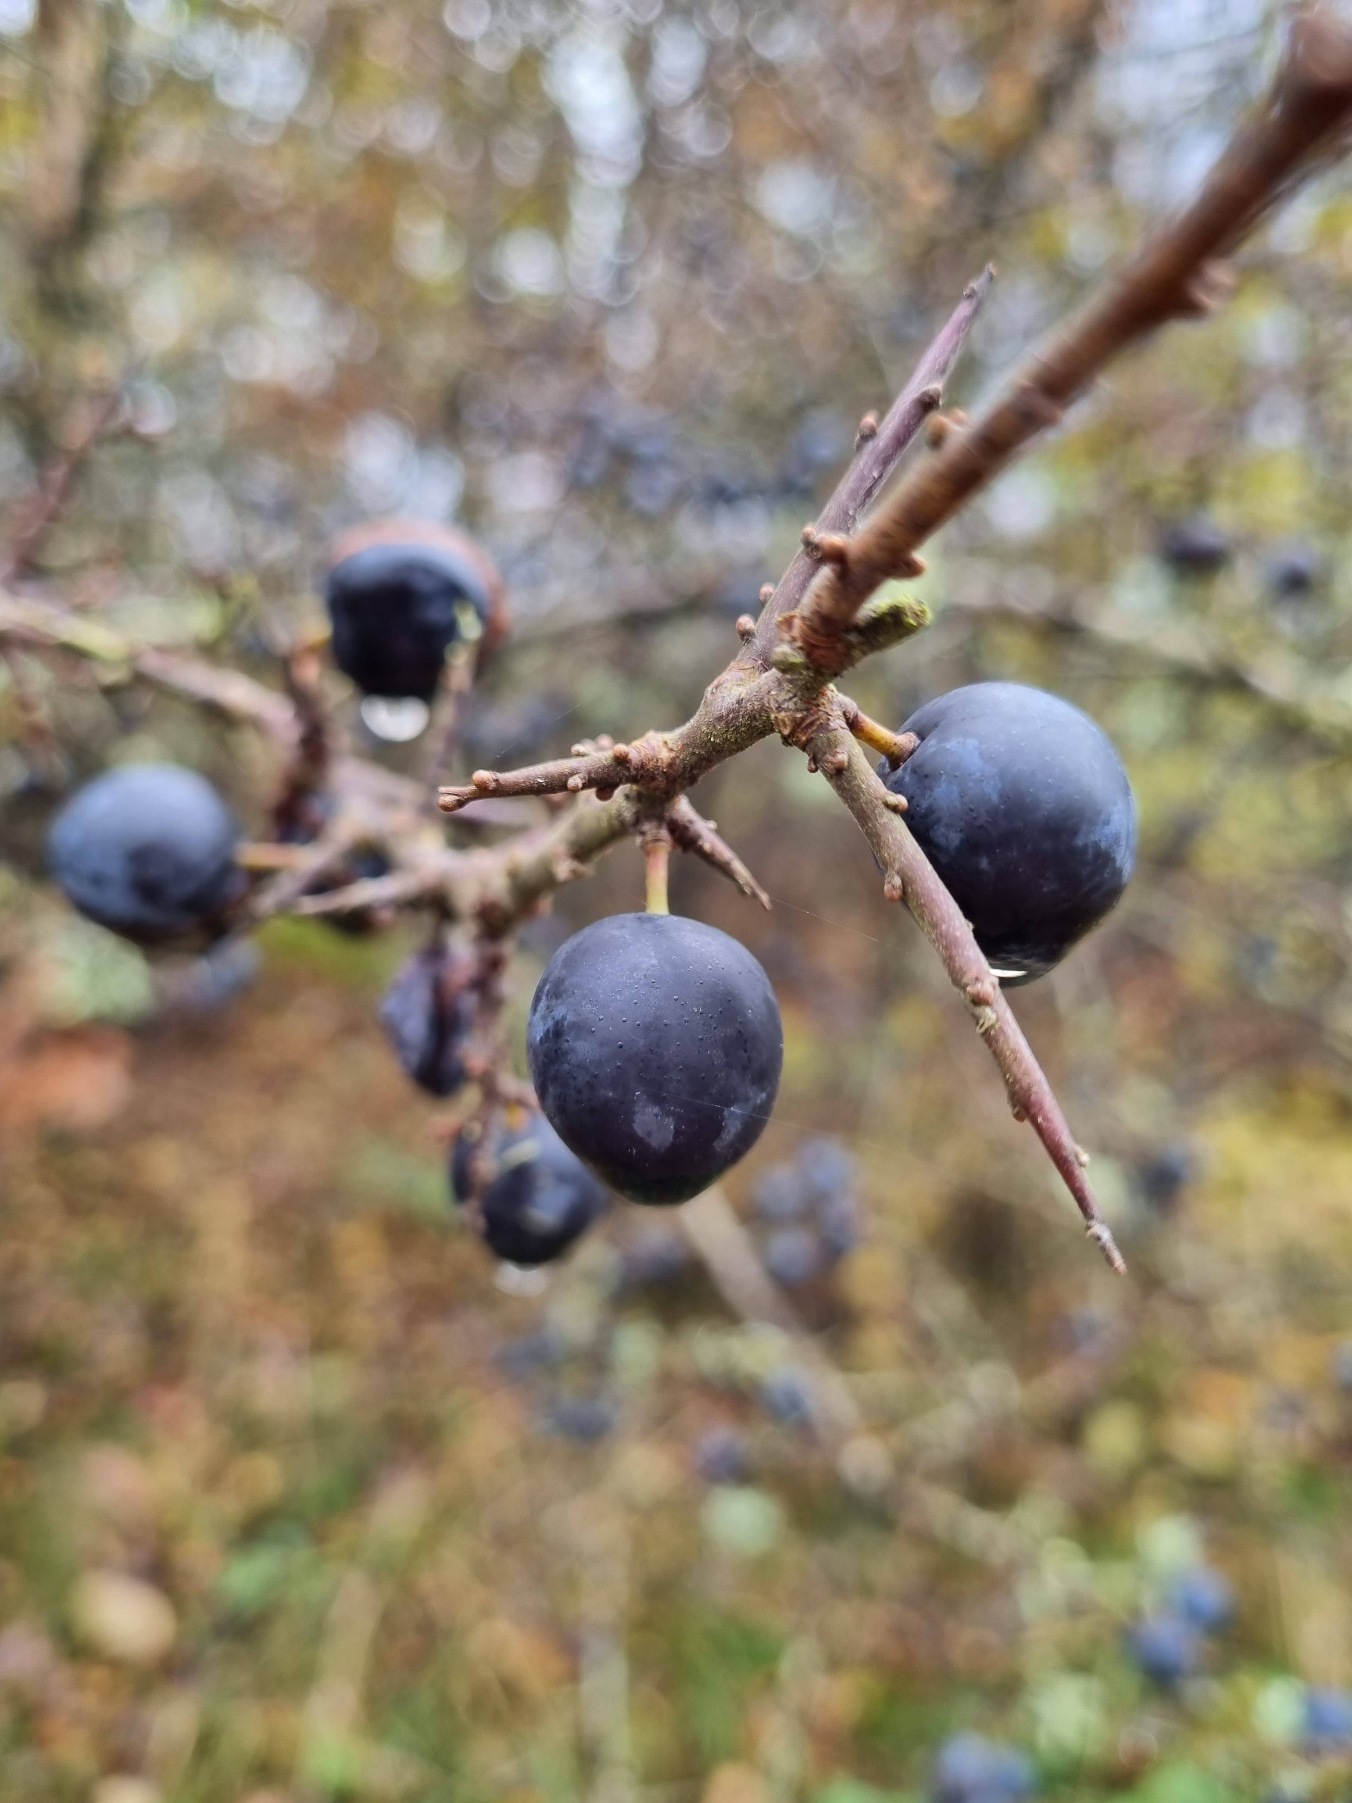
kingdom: Plantae
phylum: Tracheophyta
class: Magnoliopsida
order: Rosales
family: Rosaceae
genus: Prunus
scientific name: Prunus spinosa
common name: Slåen
